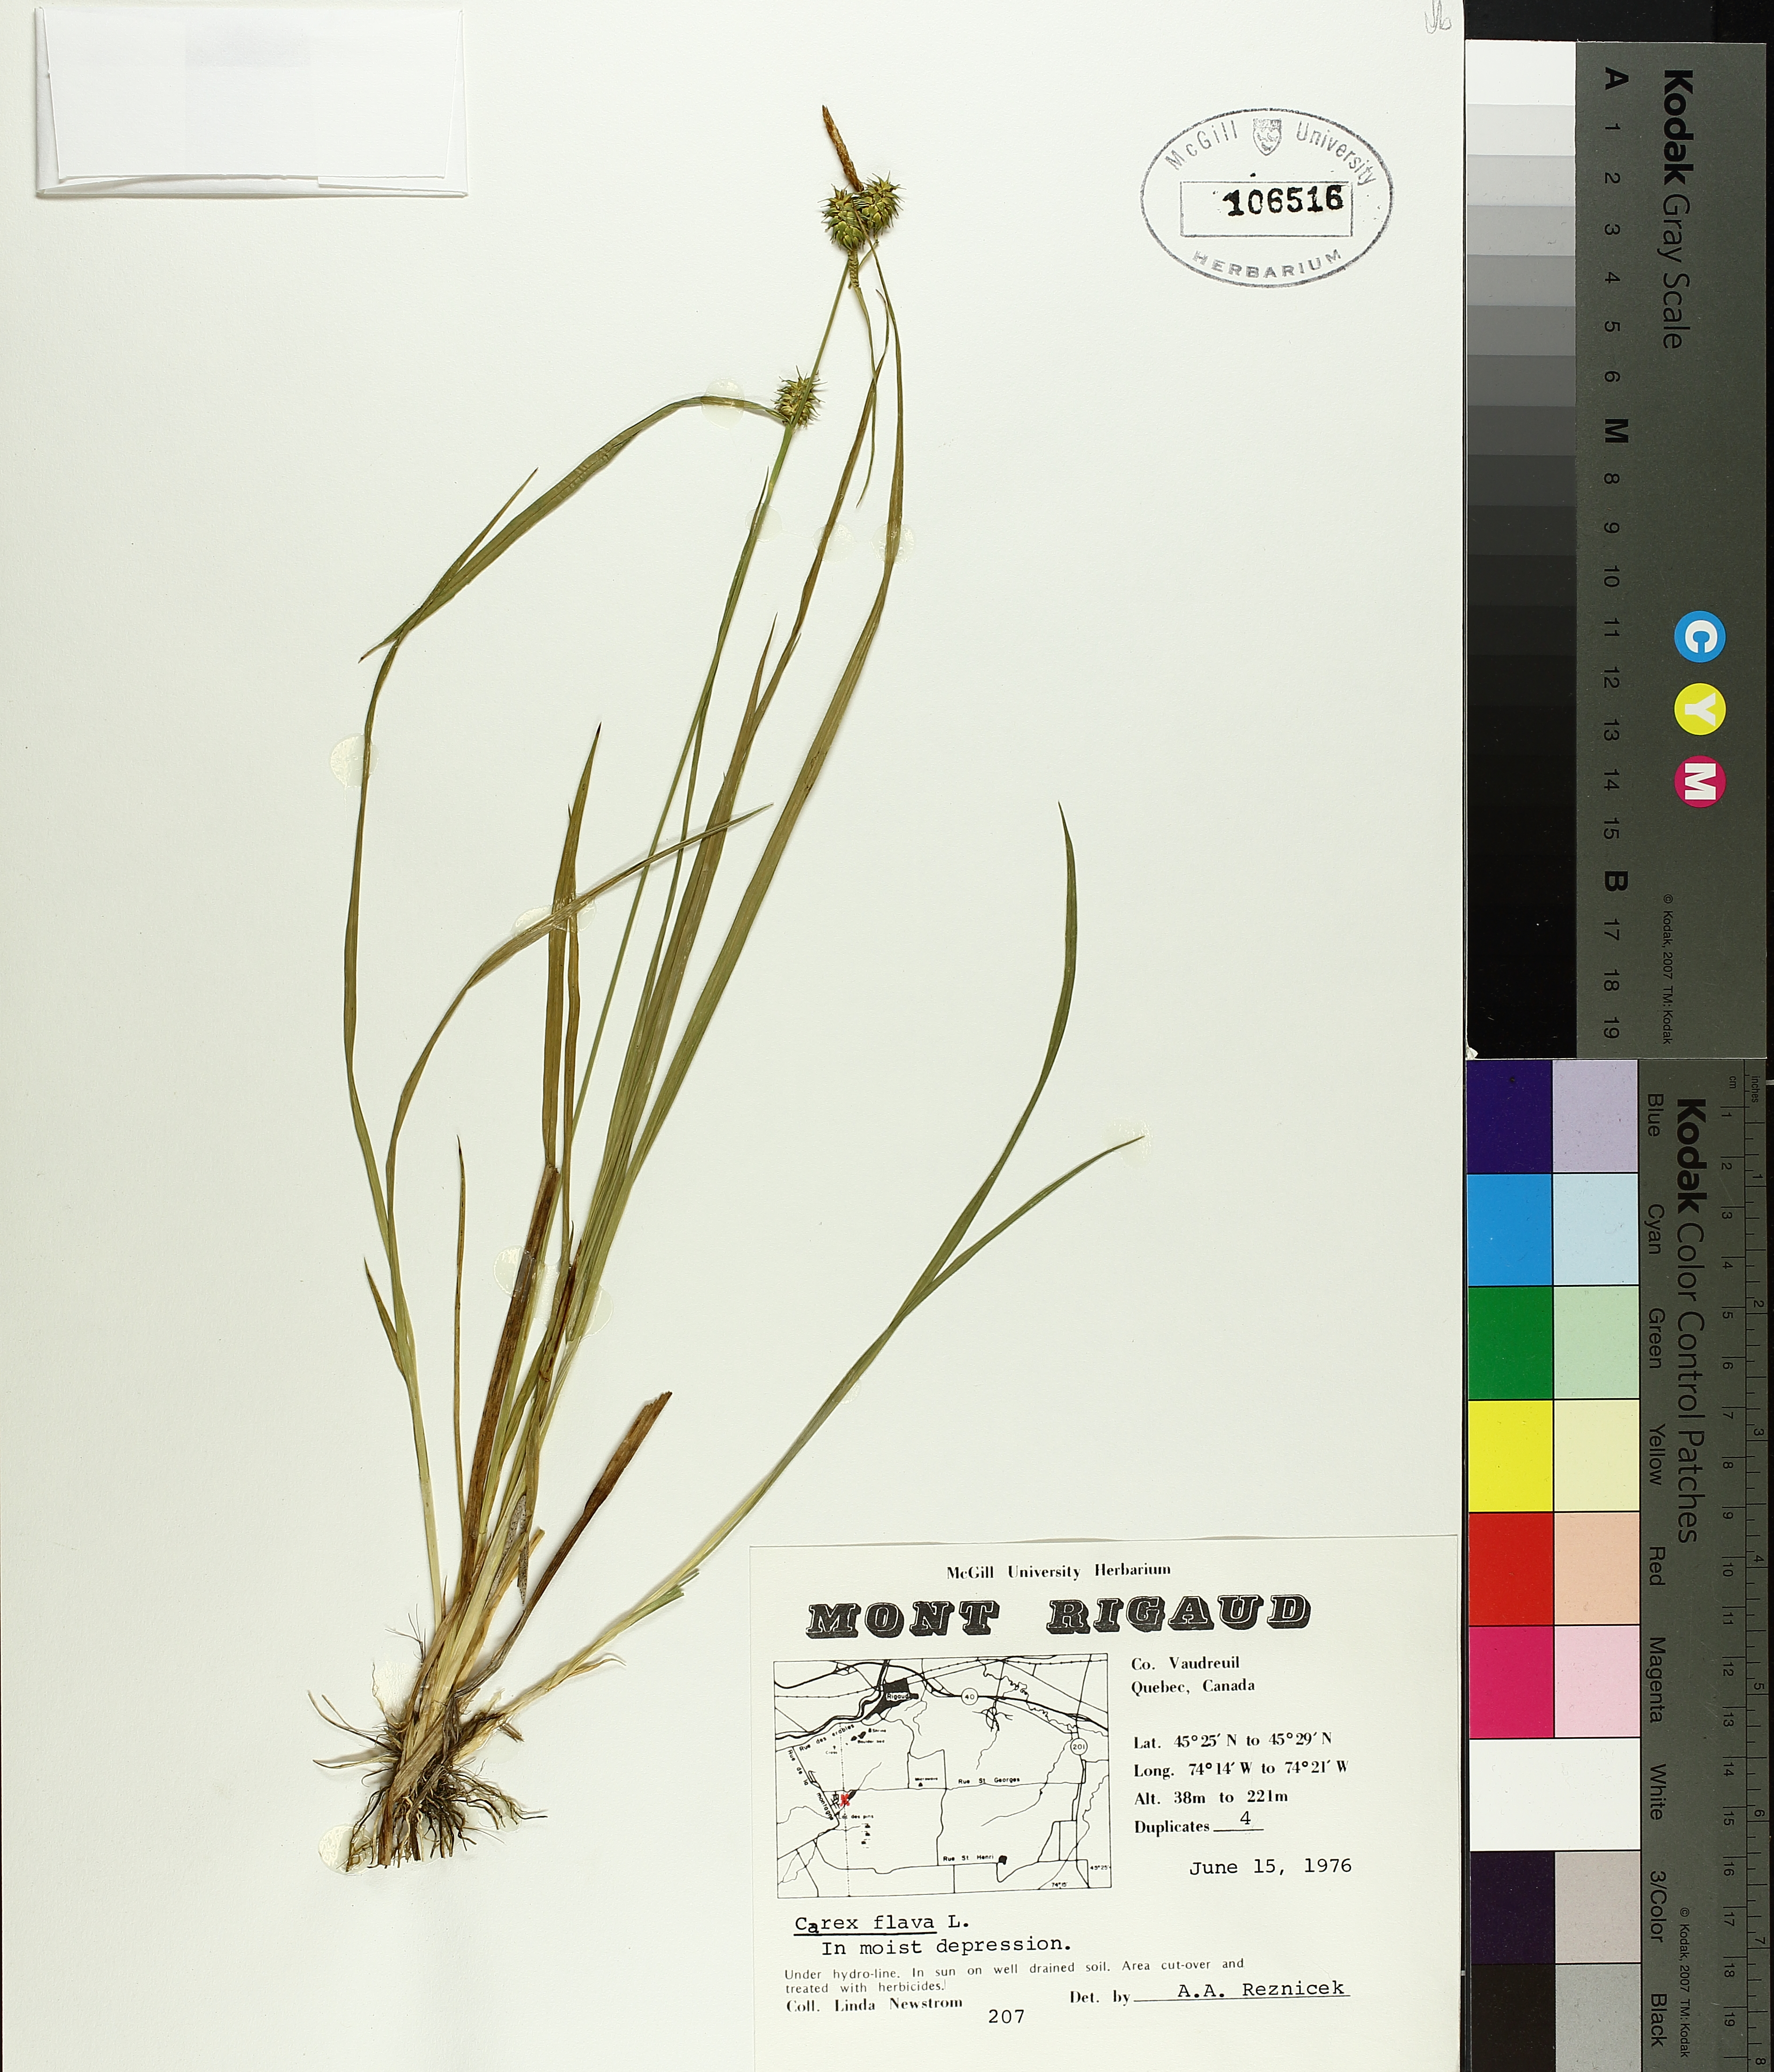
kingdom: Plantae
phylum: Tracheophyta
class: Liliopsida
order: Poales
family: Cyperaceae
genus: Carex
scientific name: Carex flava
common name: Large yellow-sedge
